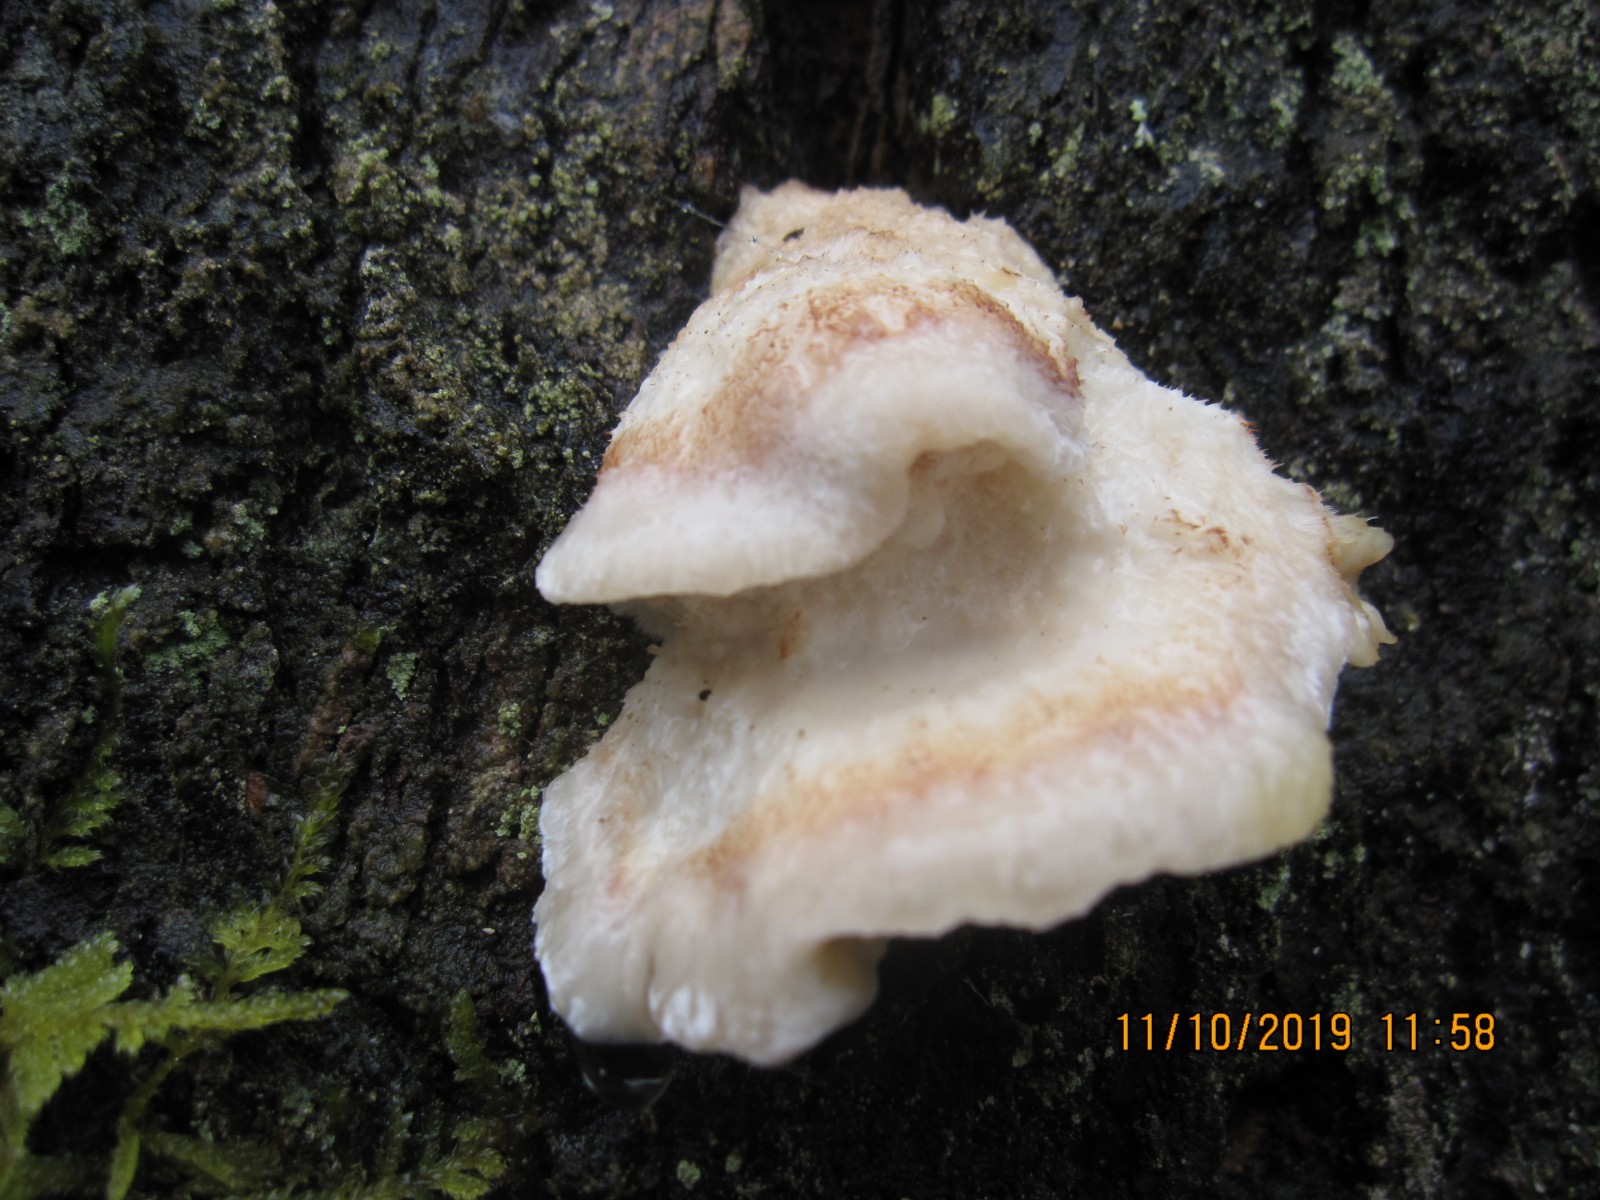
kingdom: Fungi
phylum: Basidiomycota
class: Agaricomycetes
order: Polyporales
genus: Fuscopostia
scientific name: Fuscopostia fragilis
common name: brunende kødporesvamp
